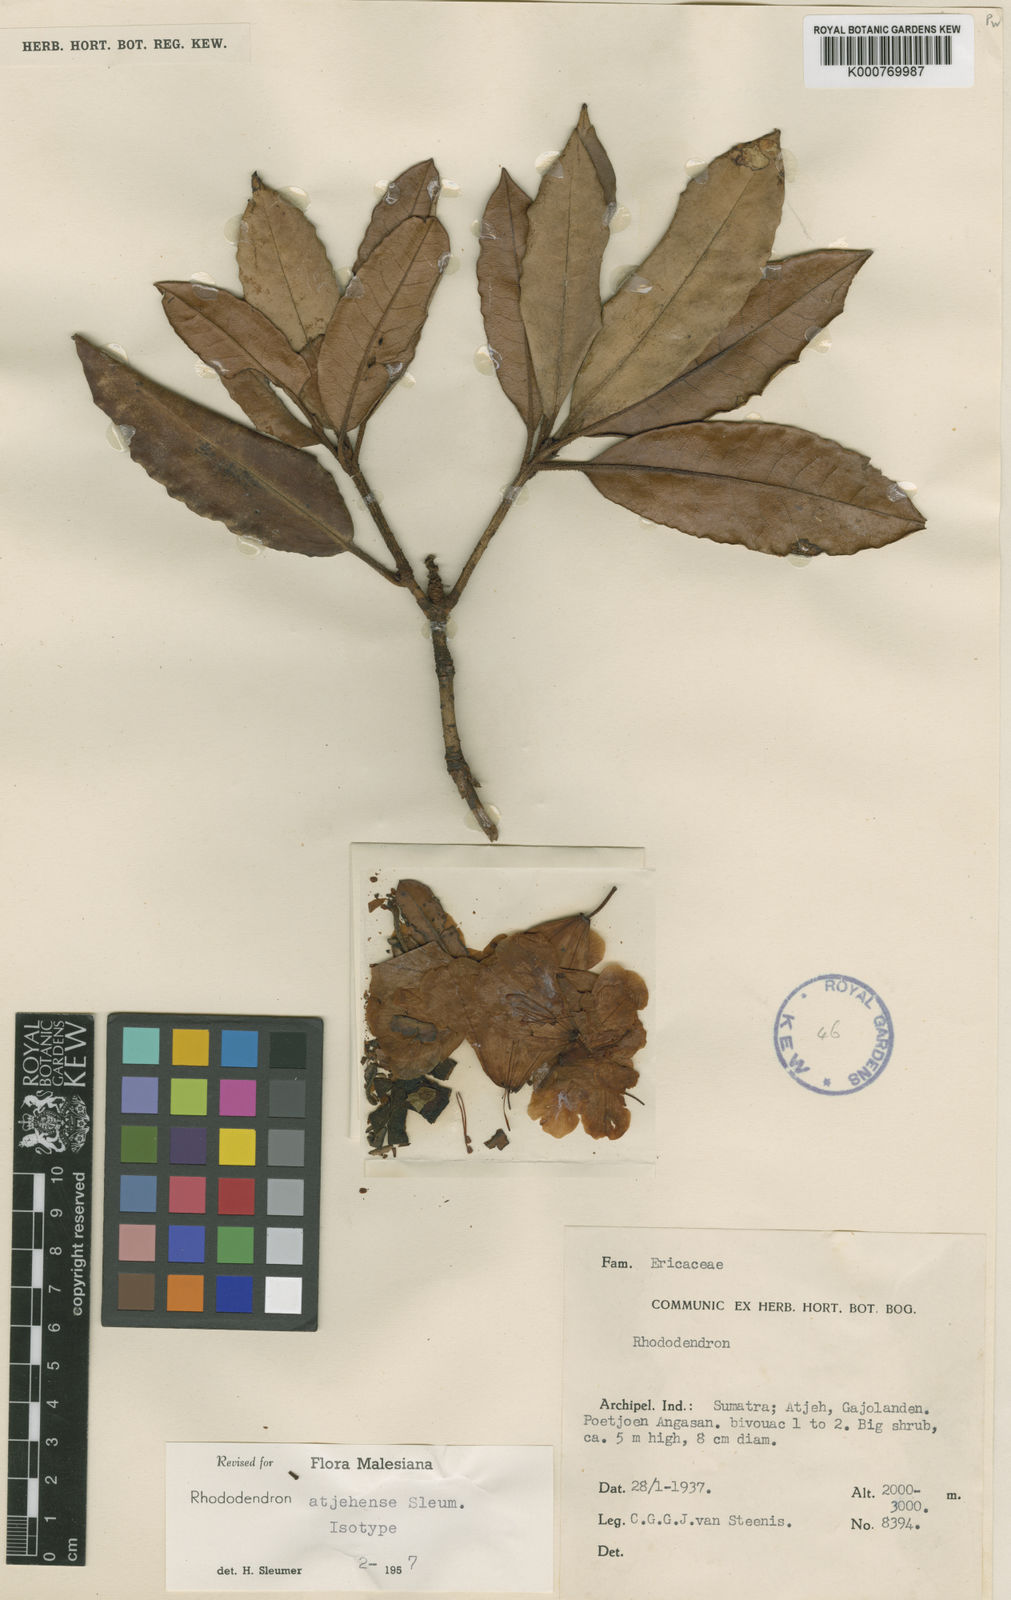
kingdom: Plantae
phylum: Tracheophyta
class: Magnoliopsida
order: Ericales
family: Ericaceae
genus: Rhododendron
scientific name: Rhododendron atjehense
